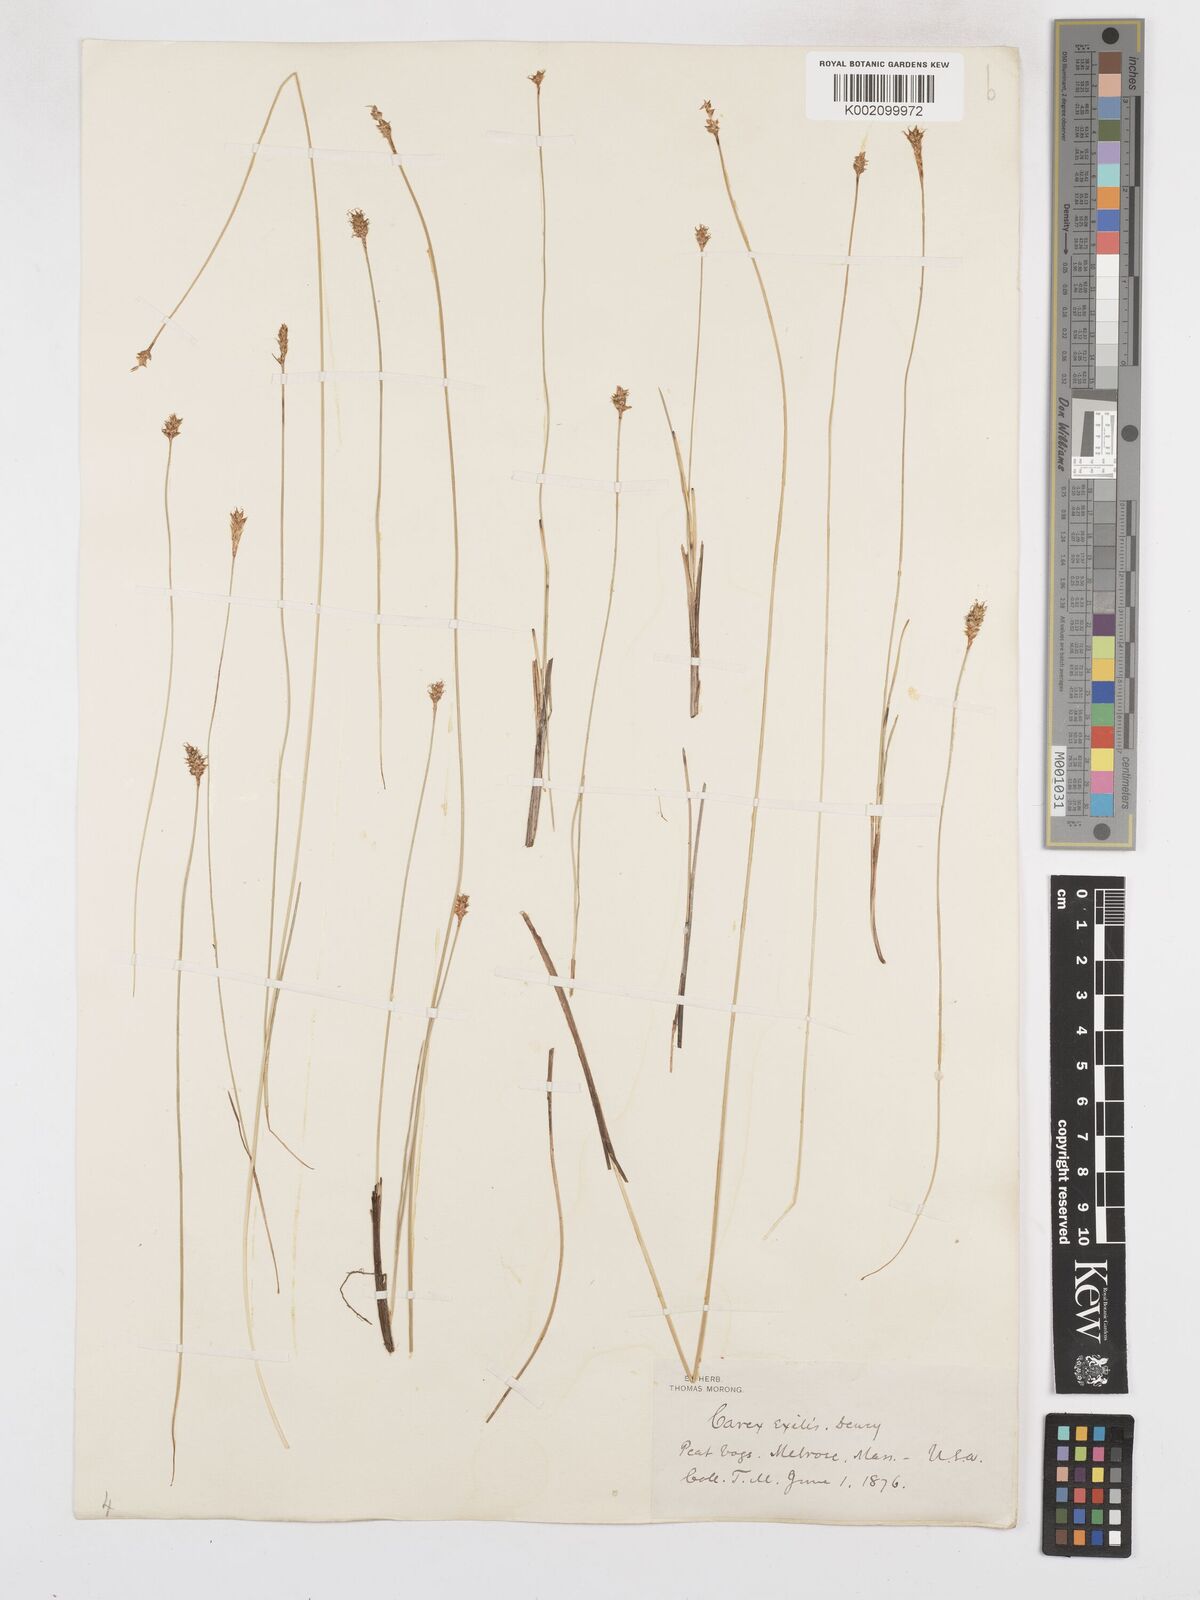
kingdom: Plantae
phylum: Tracheophyta
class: Liliopsida
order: Poales
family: Cyperaceae
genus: Carex
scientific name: Carex exilis
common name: Coastal sedge
